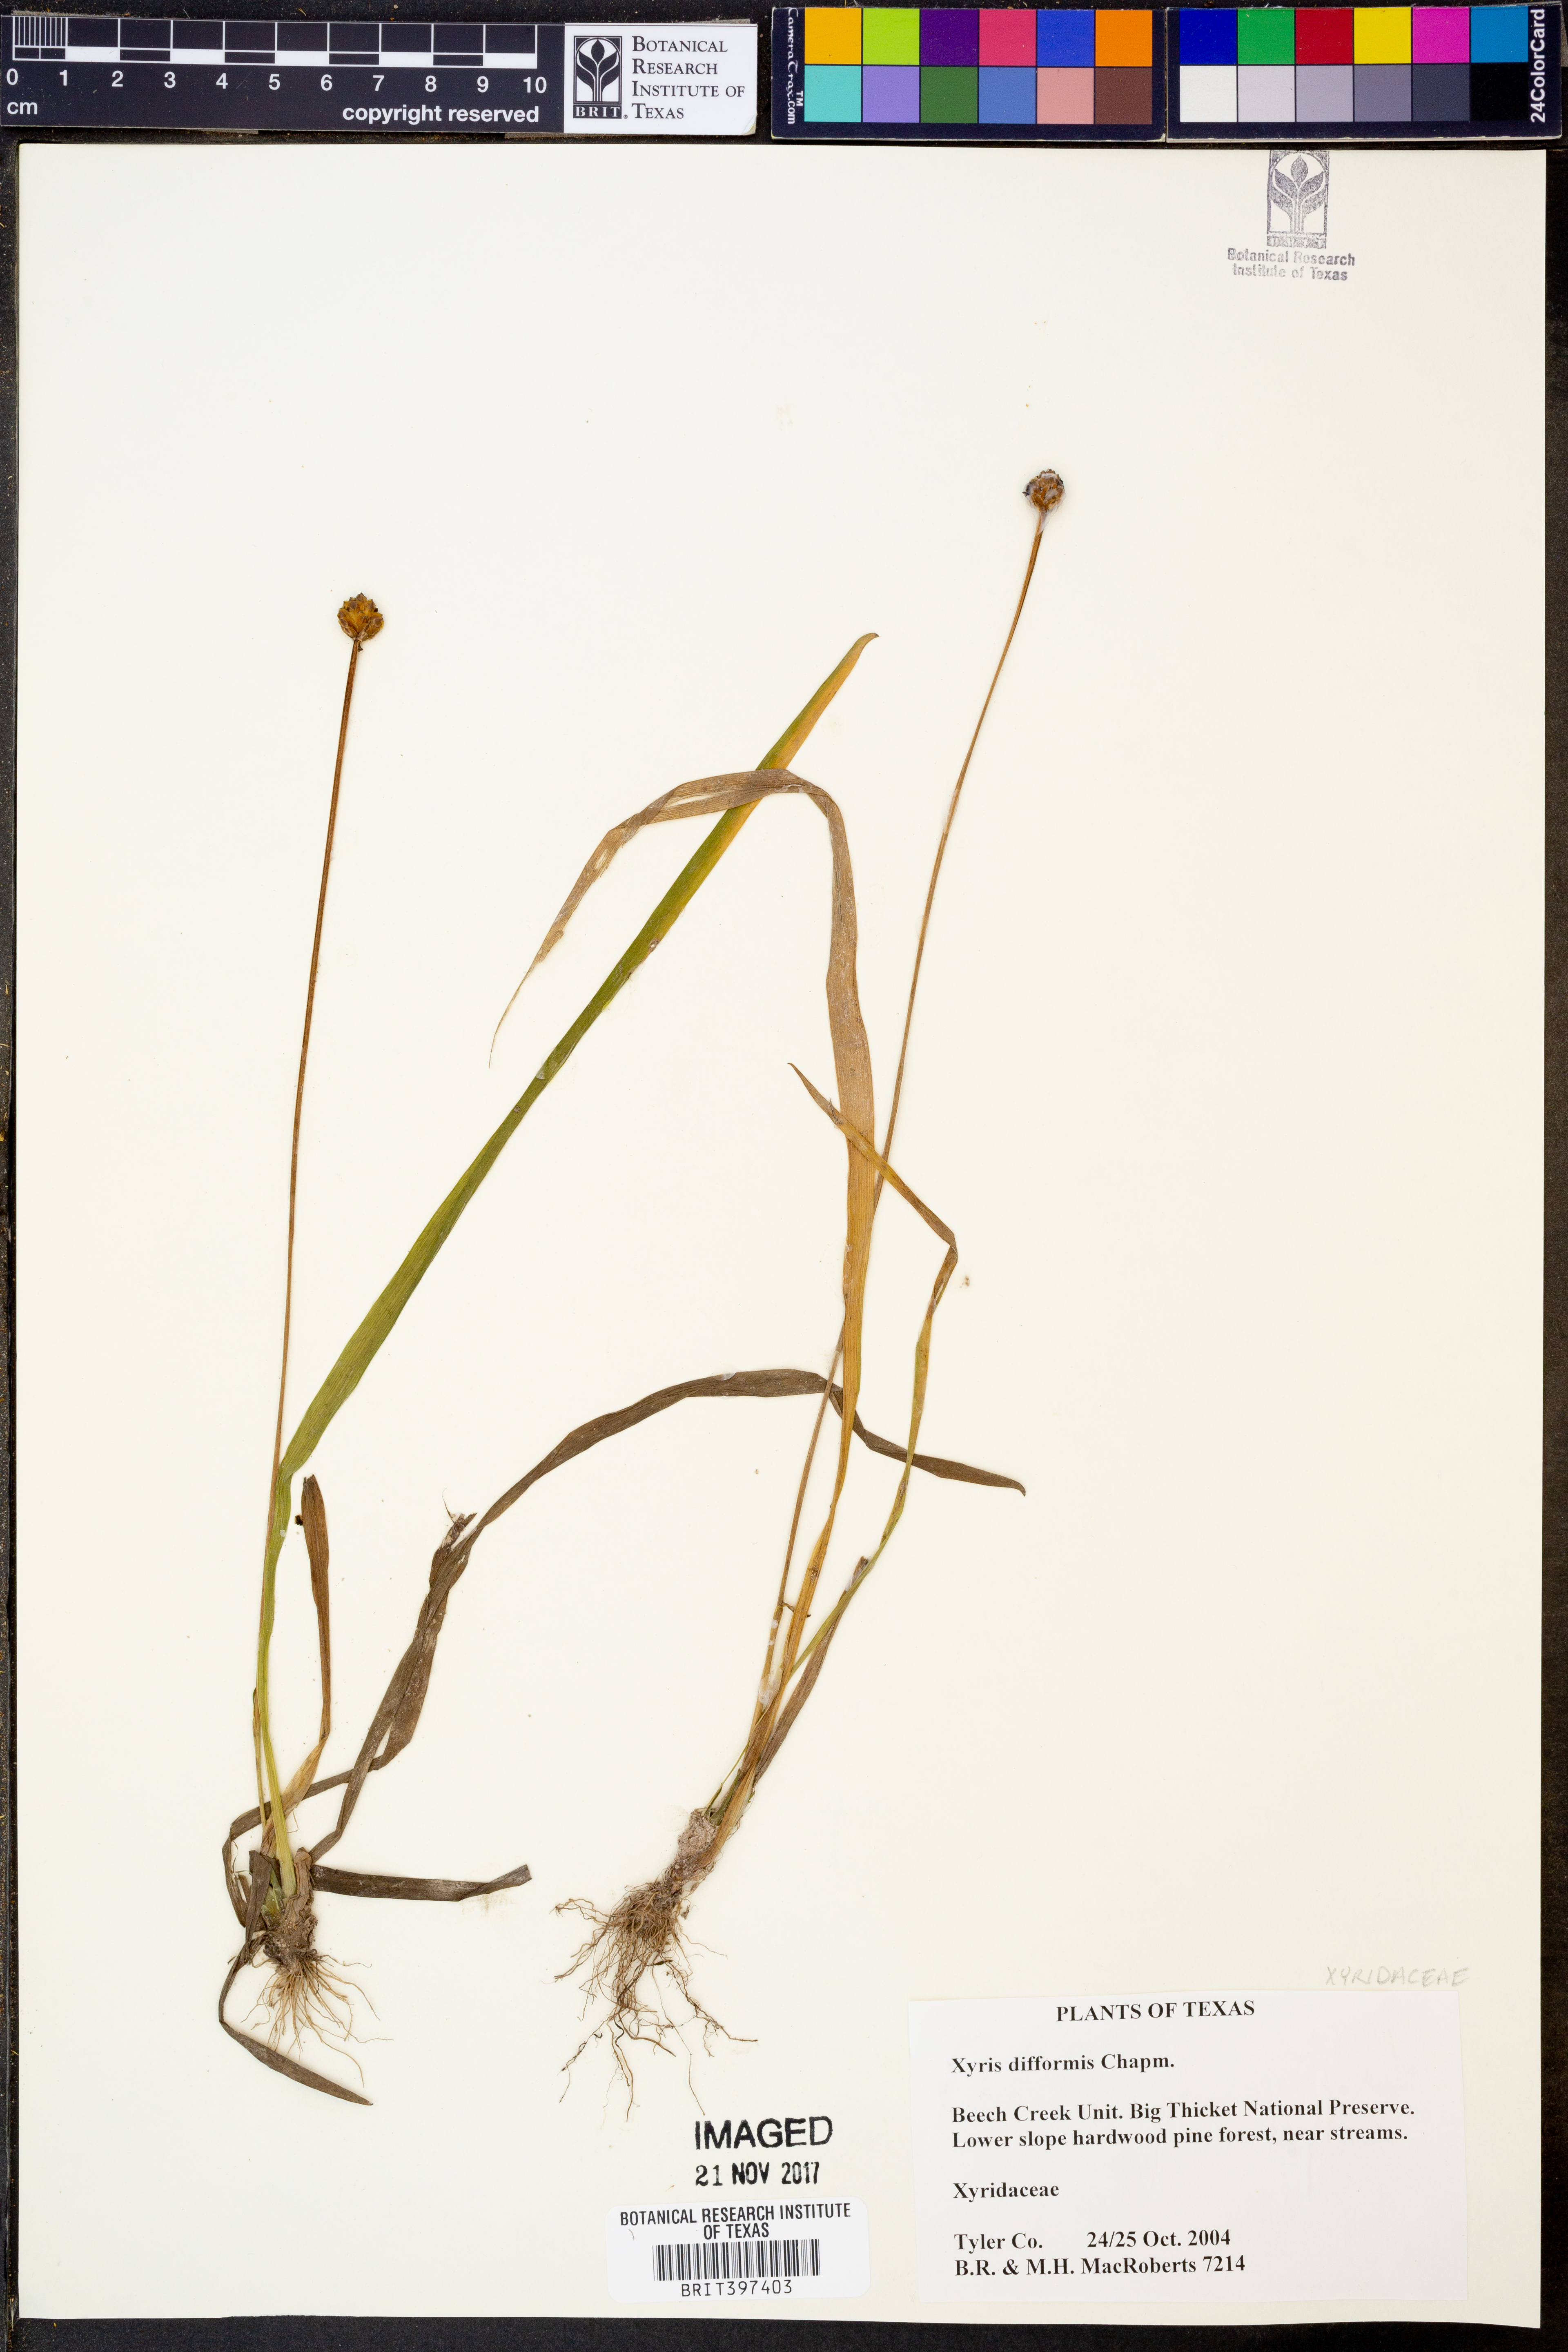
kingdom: Plantae
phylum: Tracheophyta
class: Liliopsida
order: Poales
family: Xyridaceae
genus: Xyris
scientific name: Xyris difformis
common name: Bog yellow-eyed-grass
